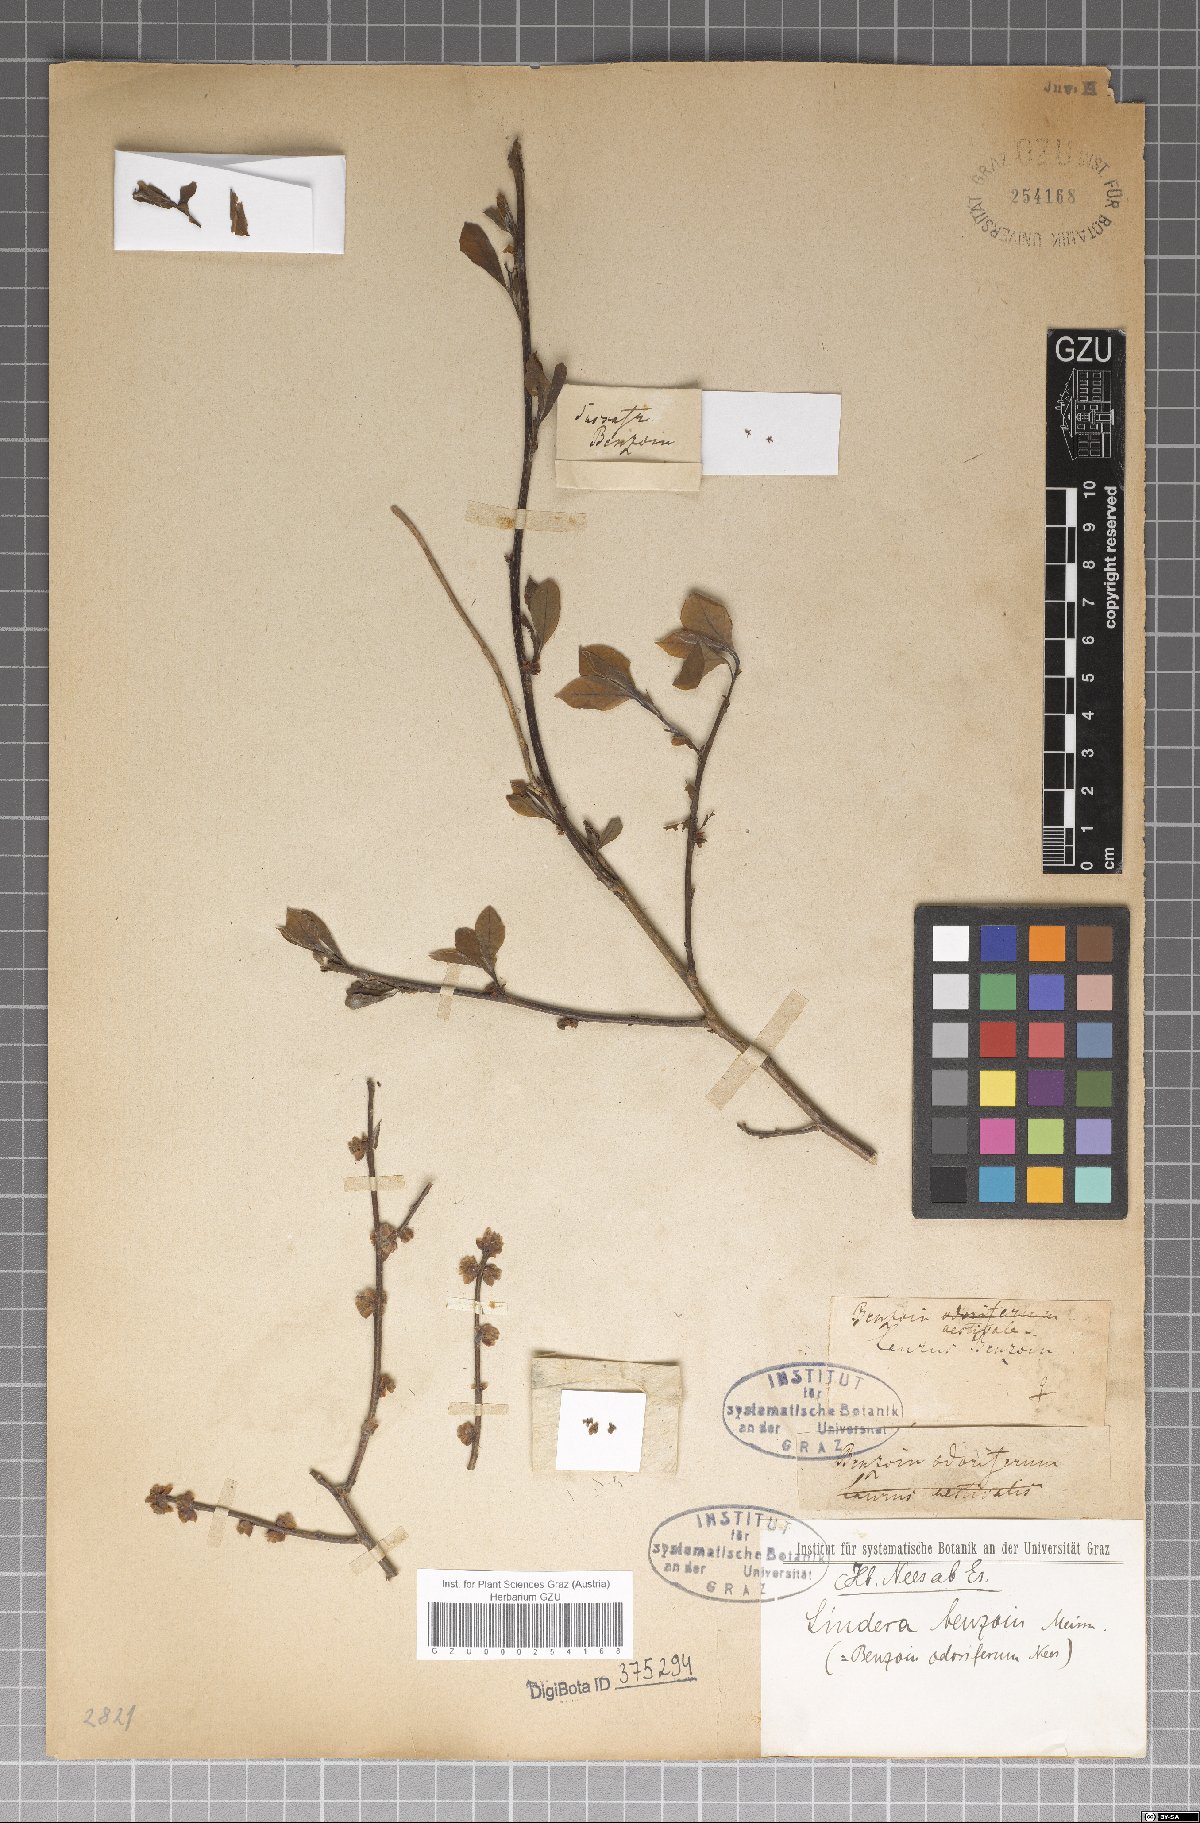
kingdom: Plantae
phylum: Tracheophyta
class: Magnoliopsida
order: Laurales
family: Lauraceae
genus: Lindera
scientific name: Lindera benzoin
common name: Spicebush
